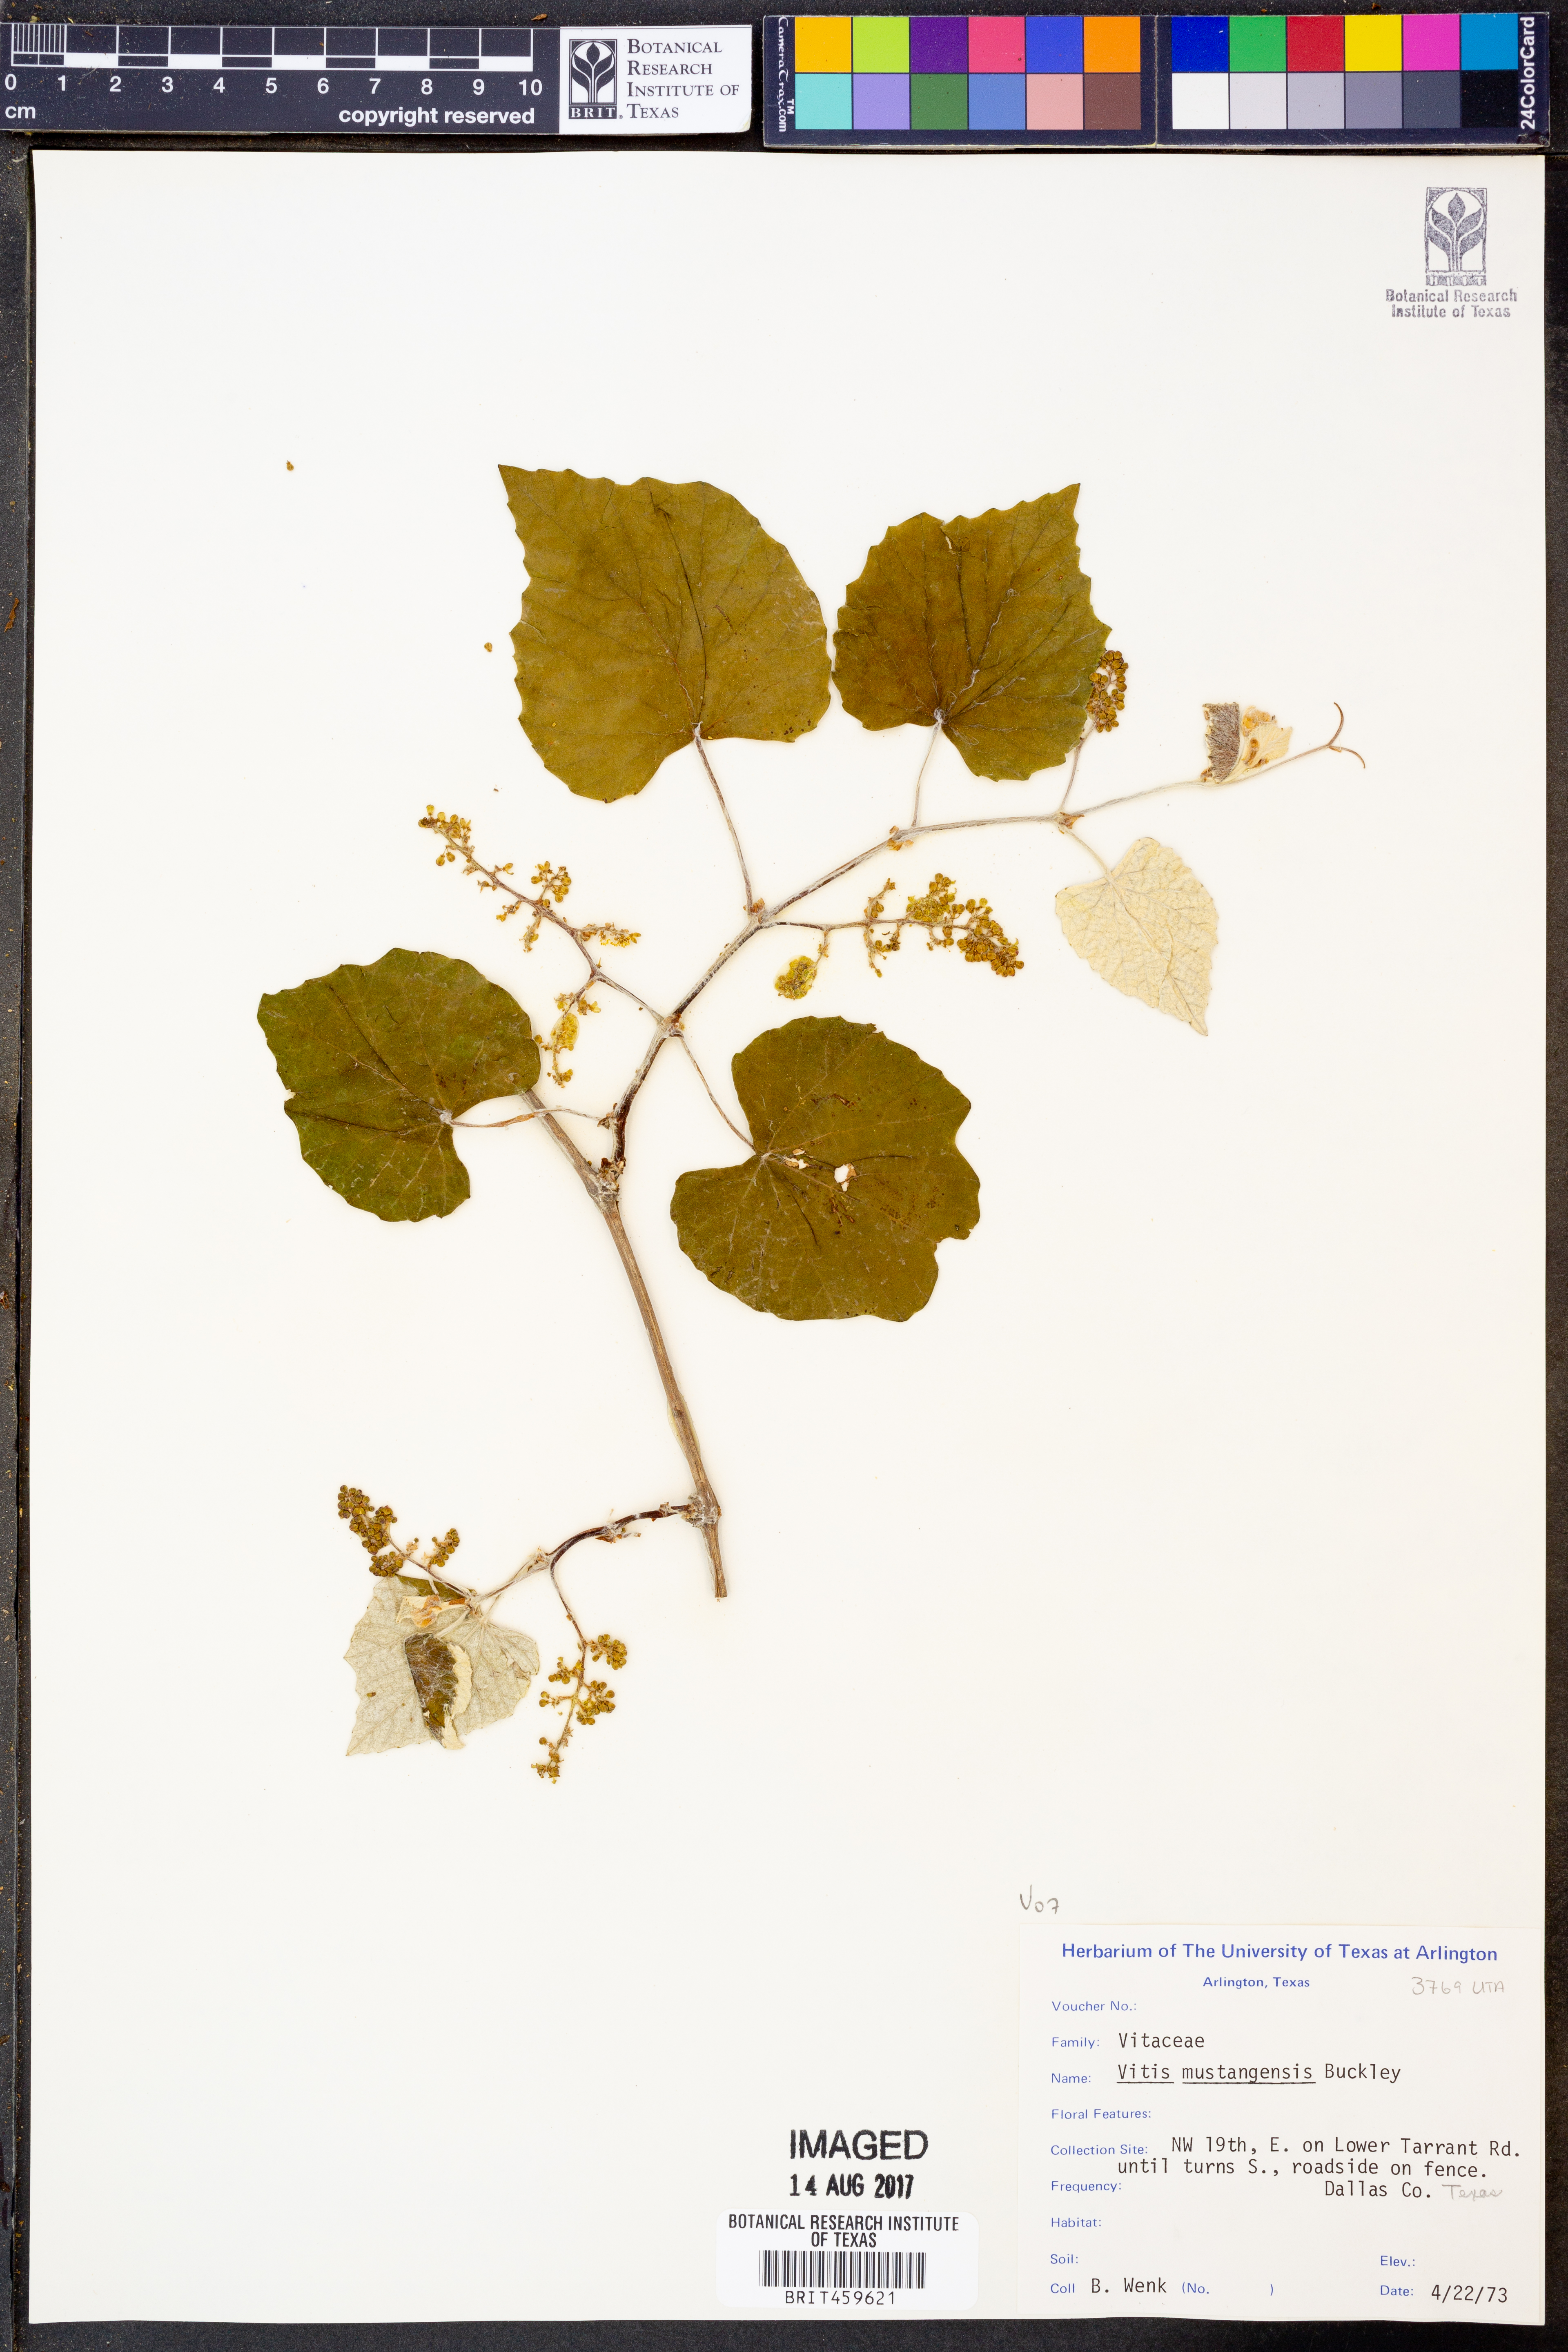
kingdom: Plantae
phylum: Tracheophyta
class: Magnoliopsida
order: Vitales
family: Vitaceae
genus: Vitis
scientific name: Vitis mustangensis
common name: Mustang grape
